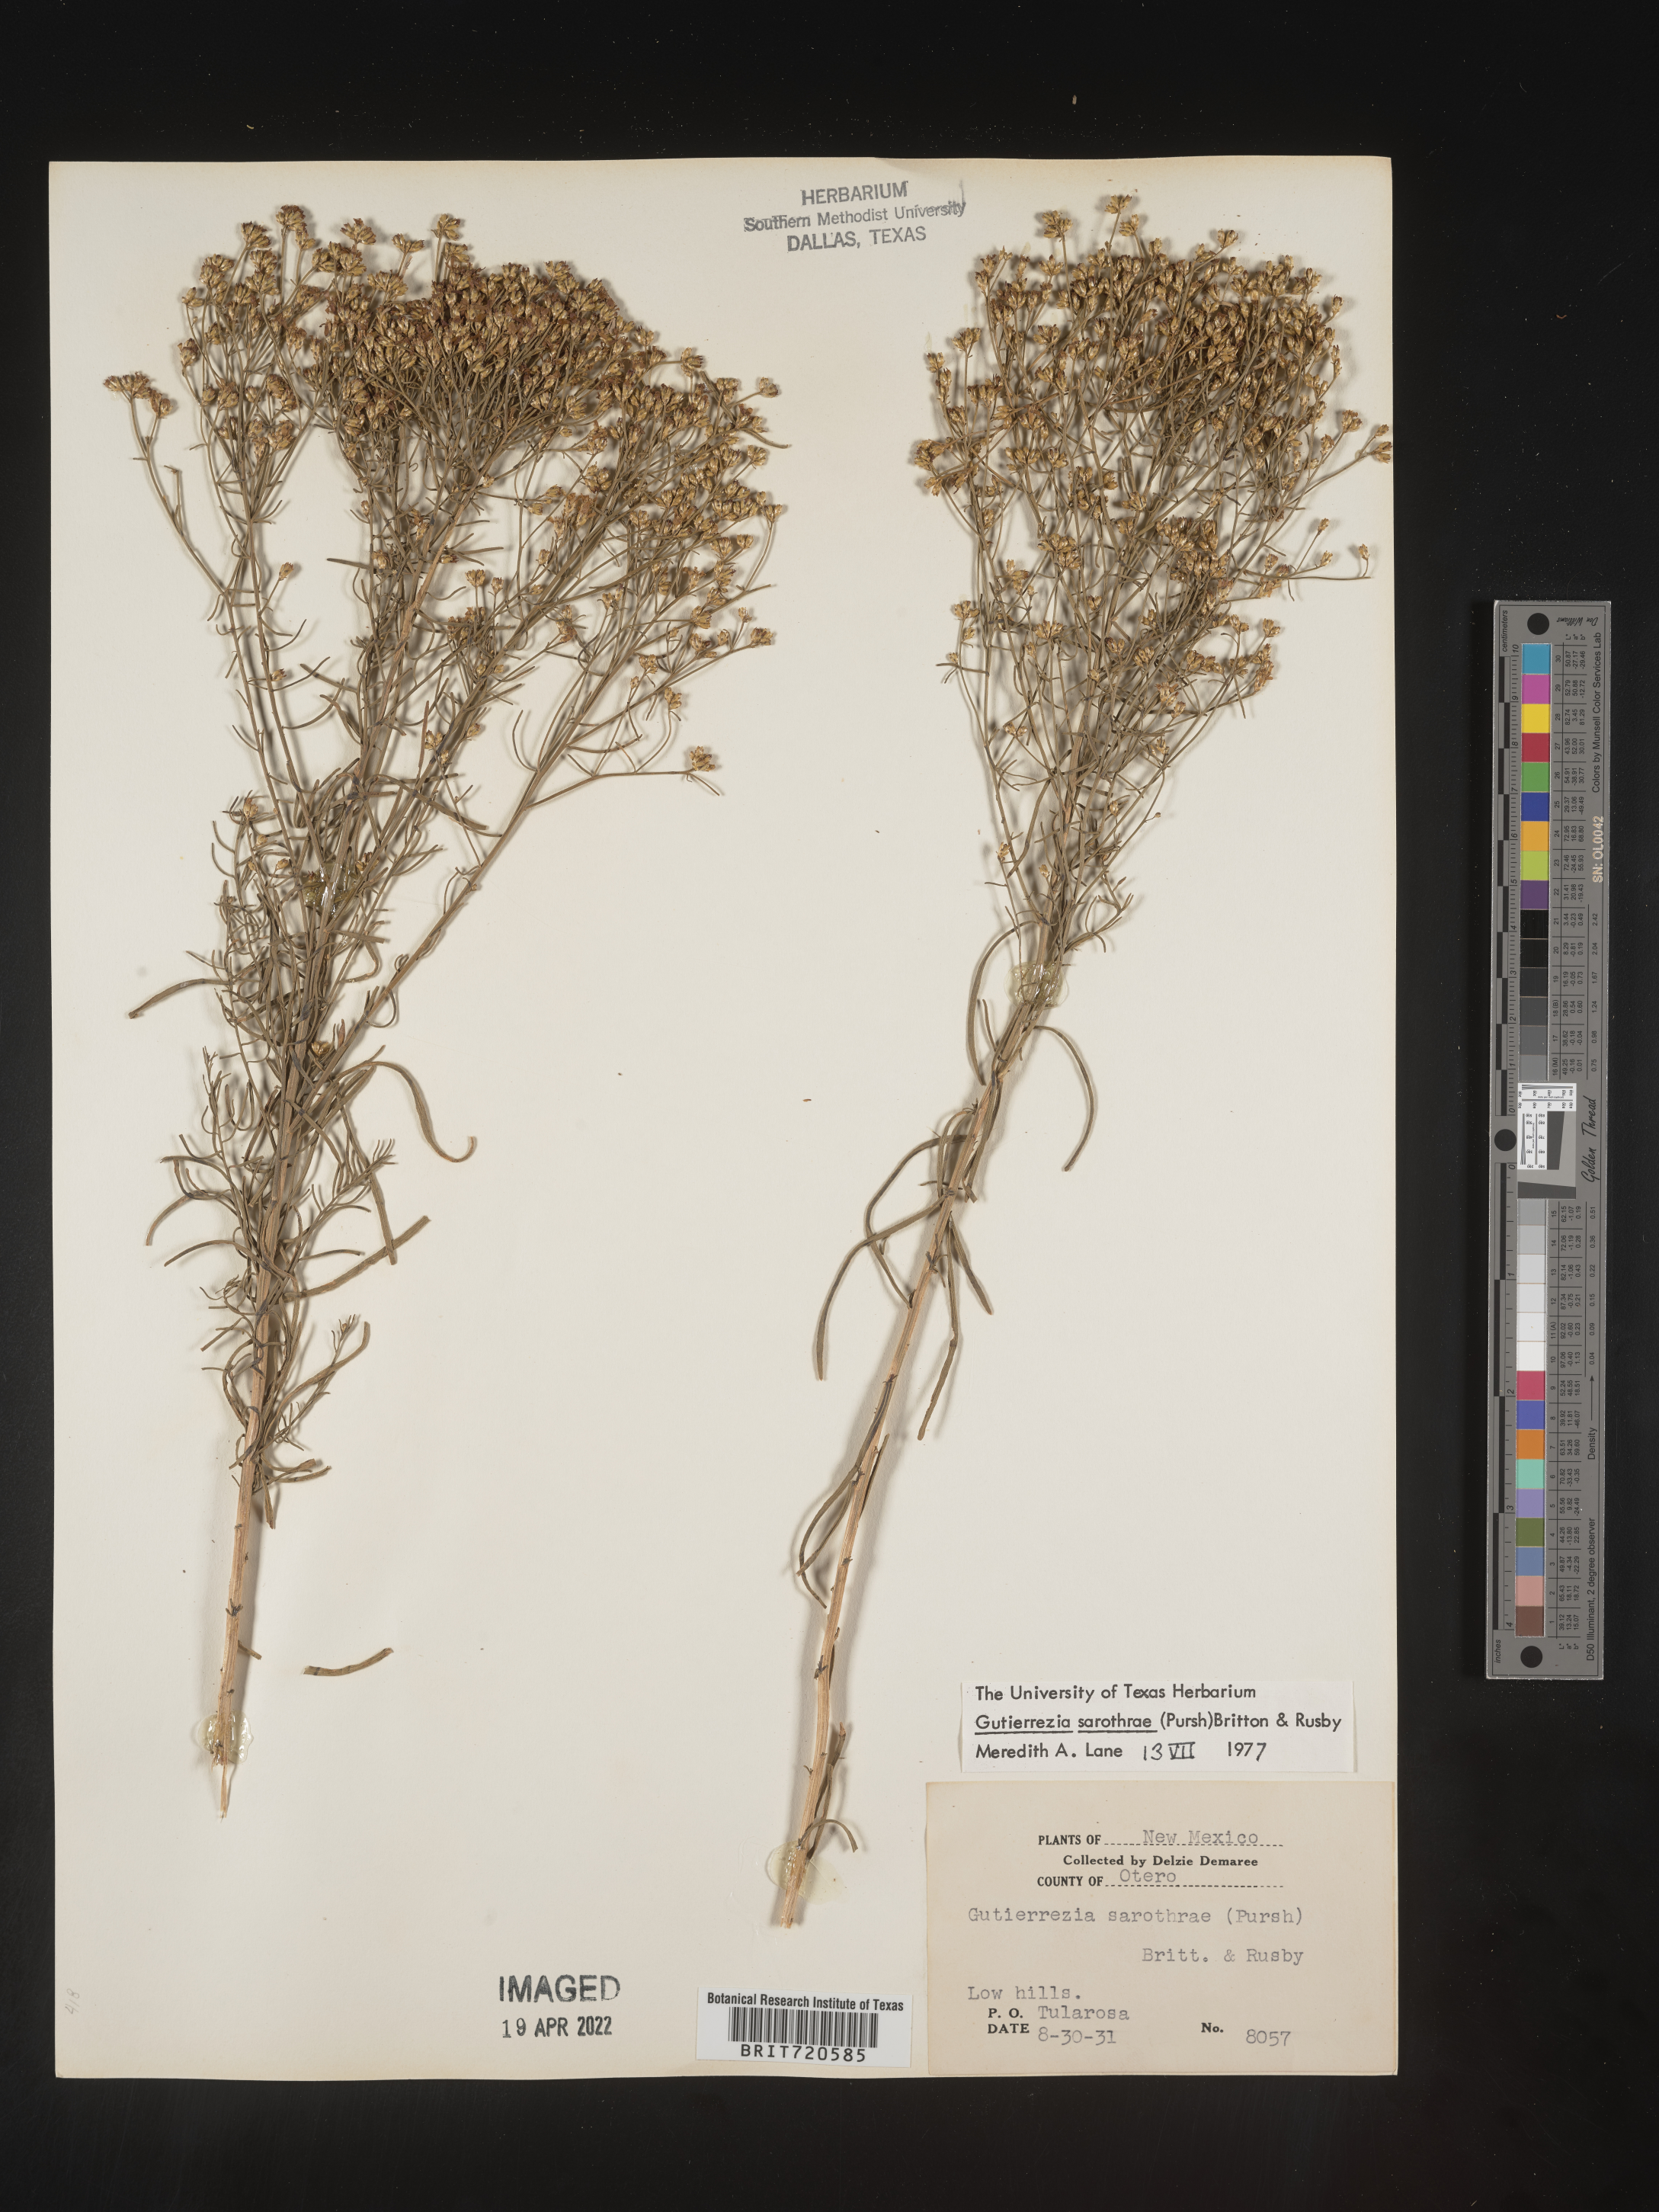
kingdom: Plantae
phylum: Tracheophyta
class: Magnoliopsida
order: Asterales
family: Asteraceae
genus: Gutierrezia
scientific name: Gutierrezia sarothrae
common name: Broom snakeweed
